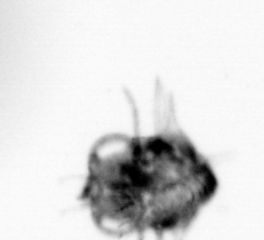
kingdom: Animalia
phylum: Arthropoda
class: Copepoda
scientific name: Copepoda
